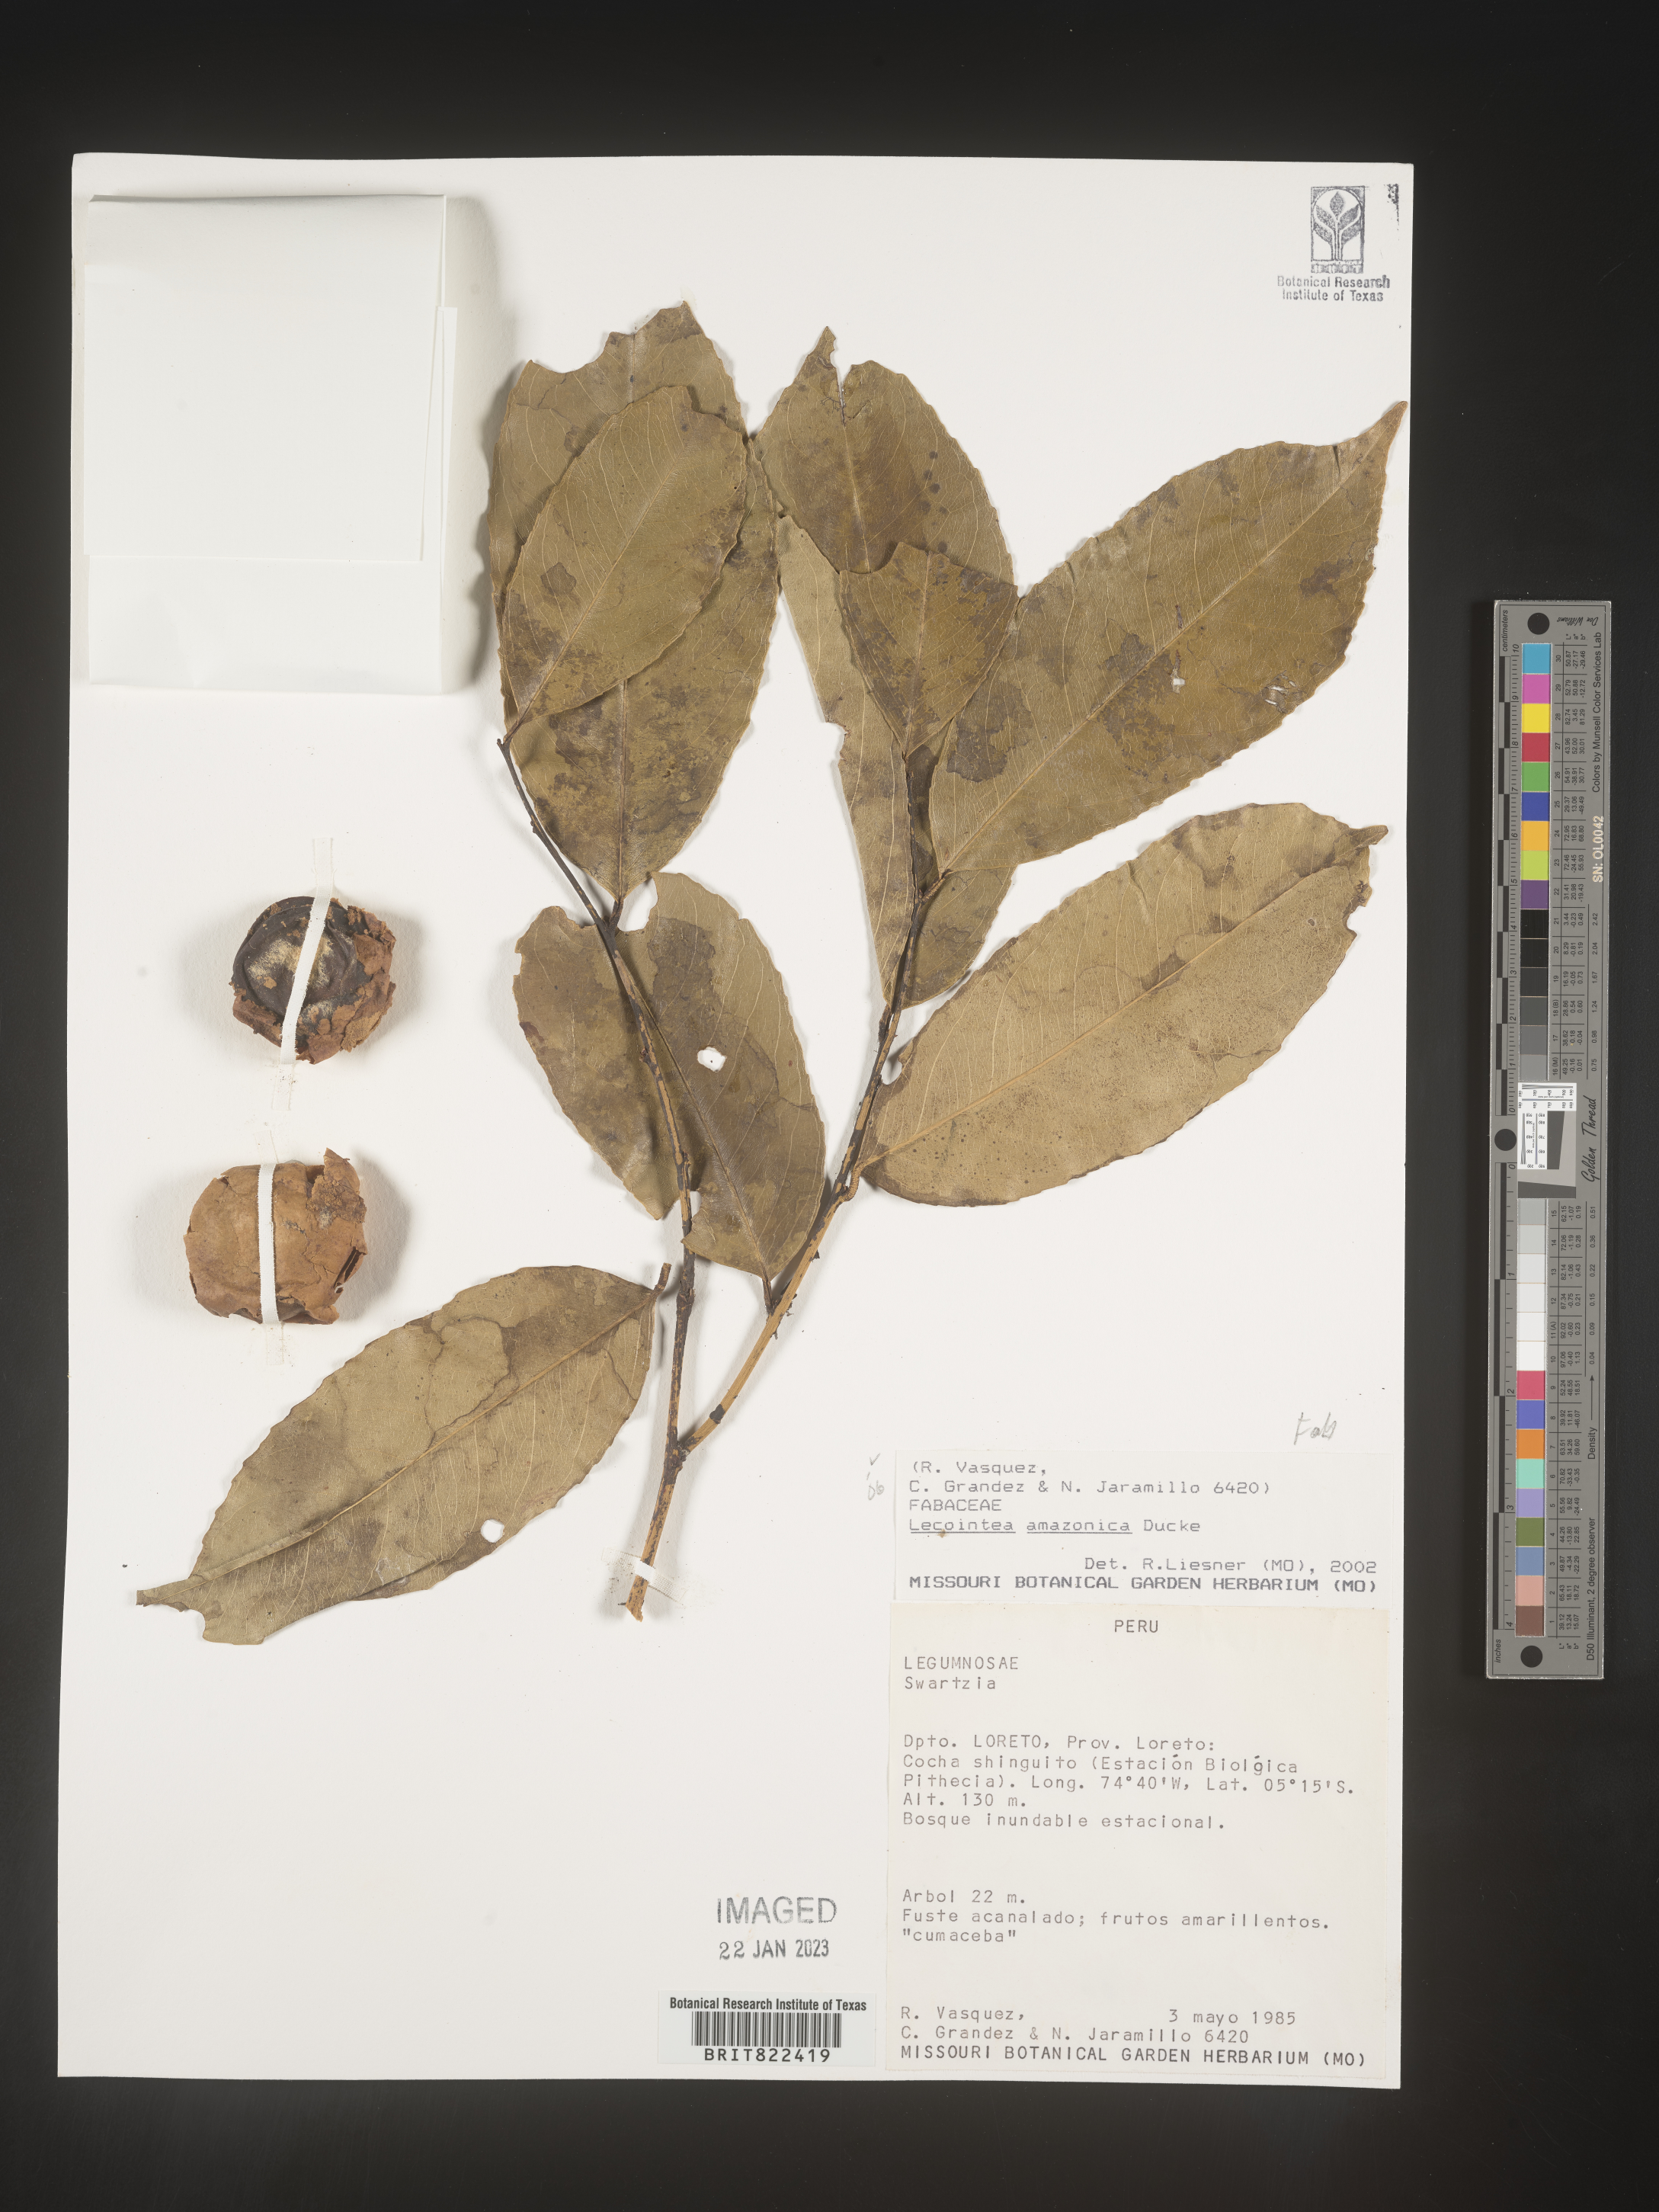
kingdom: Plantae
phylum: Tracheophyta
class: Magnoliopsida
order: Fabales
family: Fabaceae
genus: Lecointea
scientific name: Lecointea
